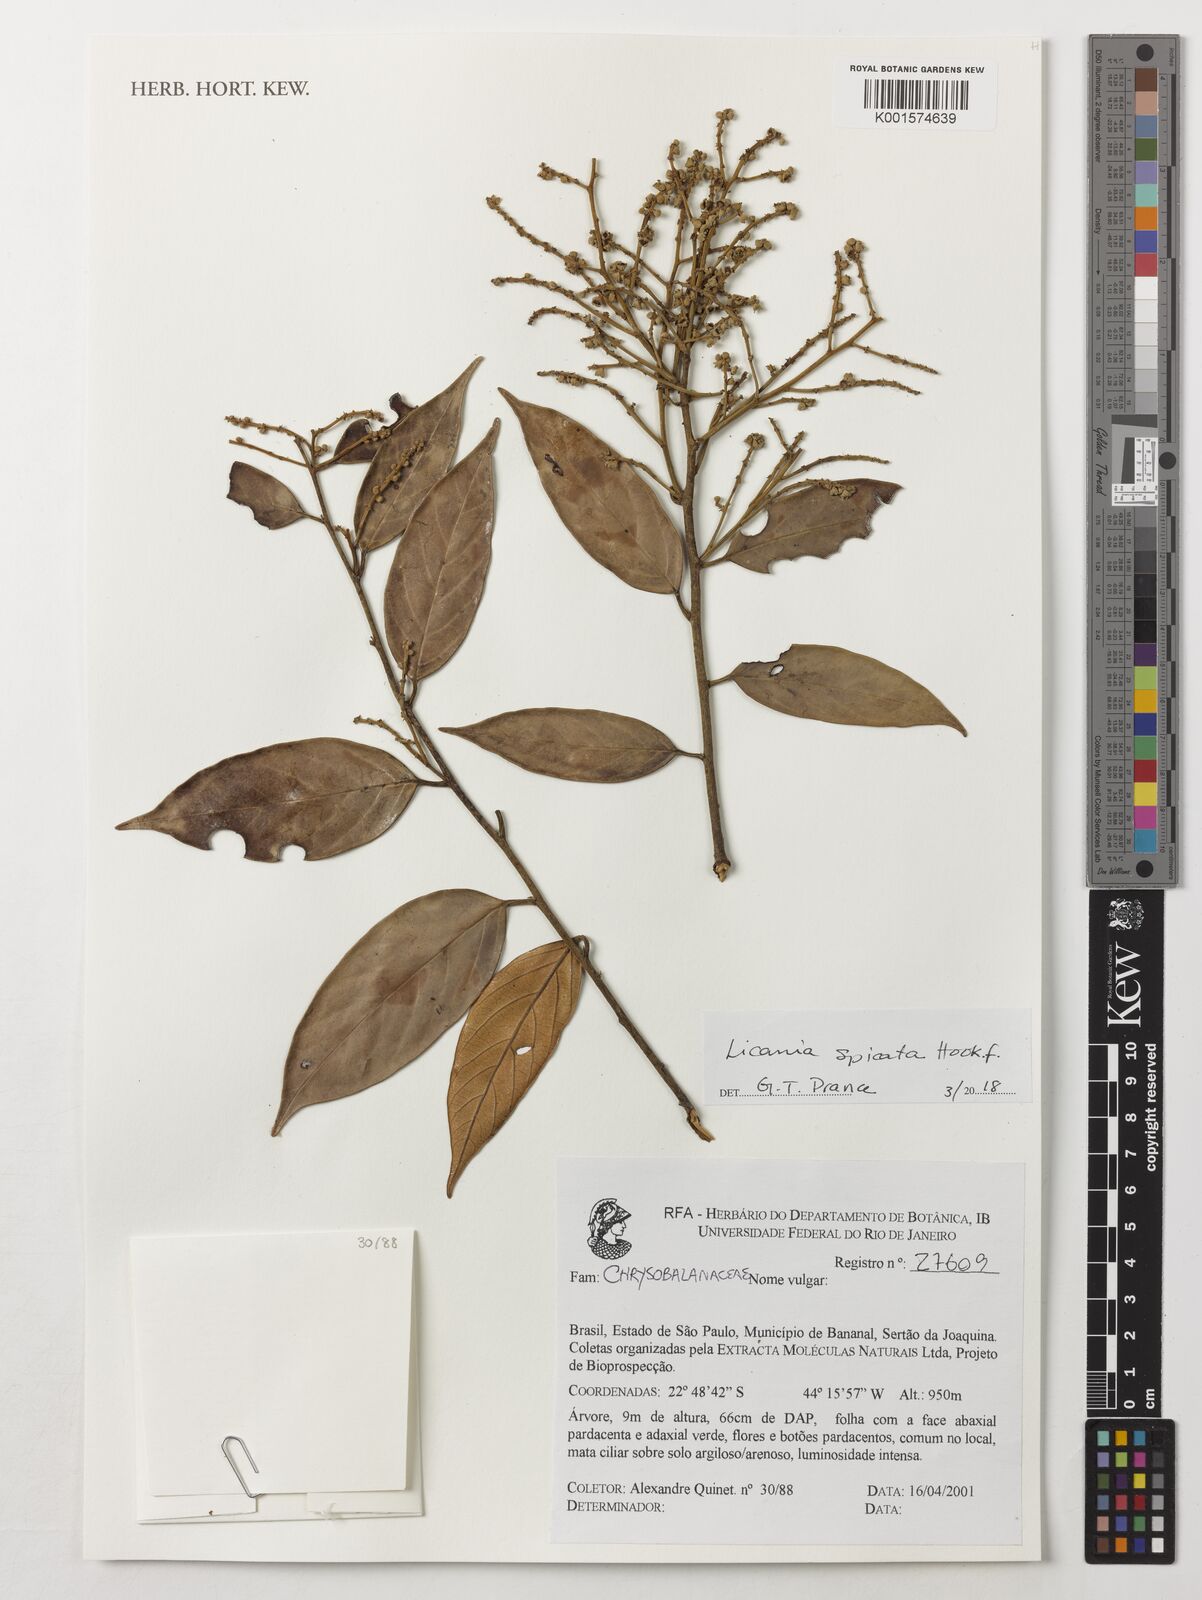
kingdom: Plantae
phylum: Tracheophyta
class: Magnoliopsida
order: Malpighiales
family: Chrysobalanaceae
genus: Licania
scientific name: Licania spicata
